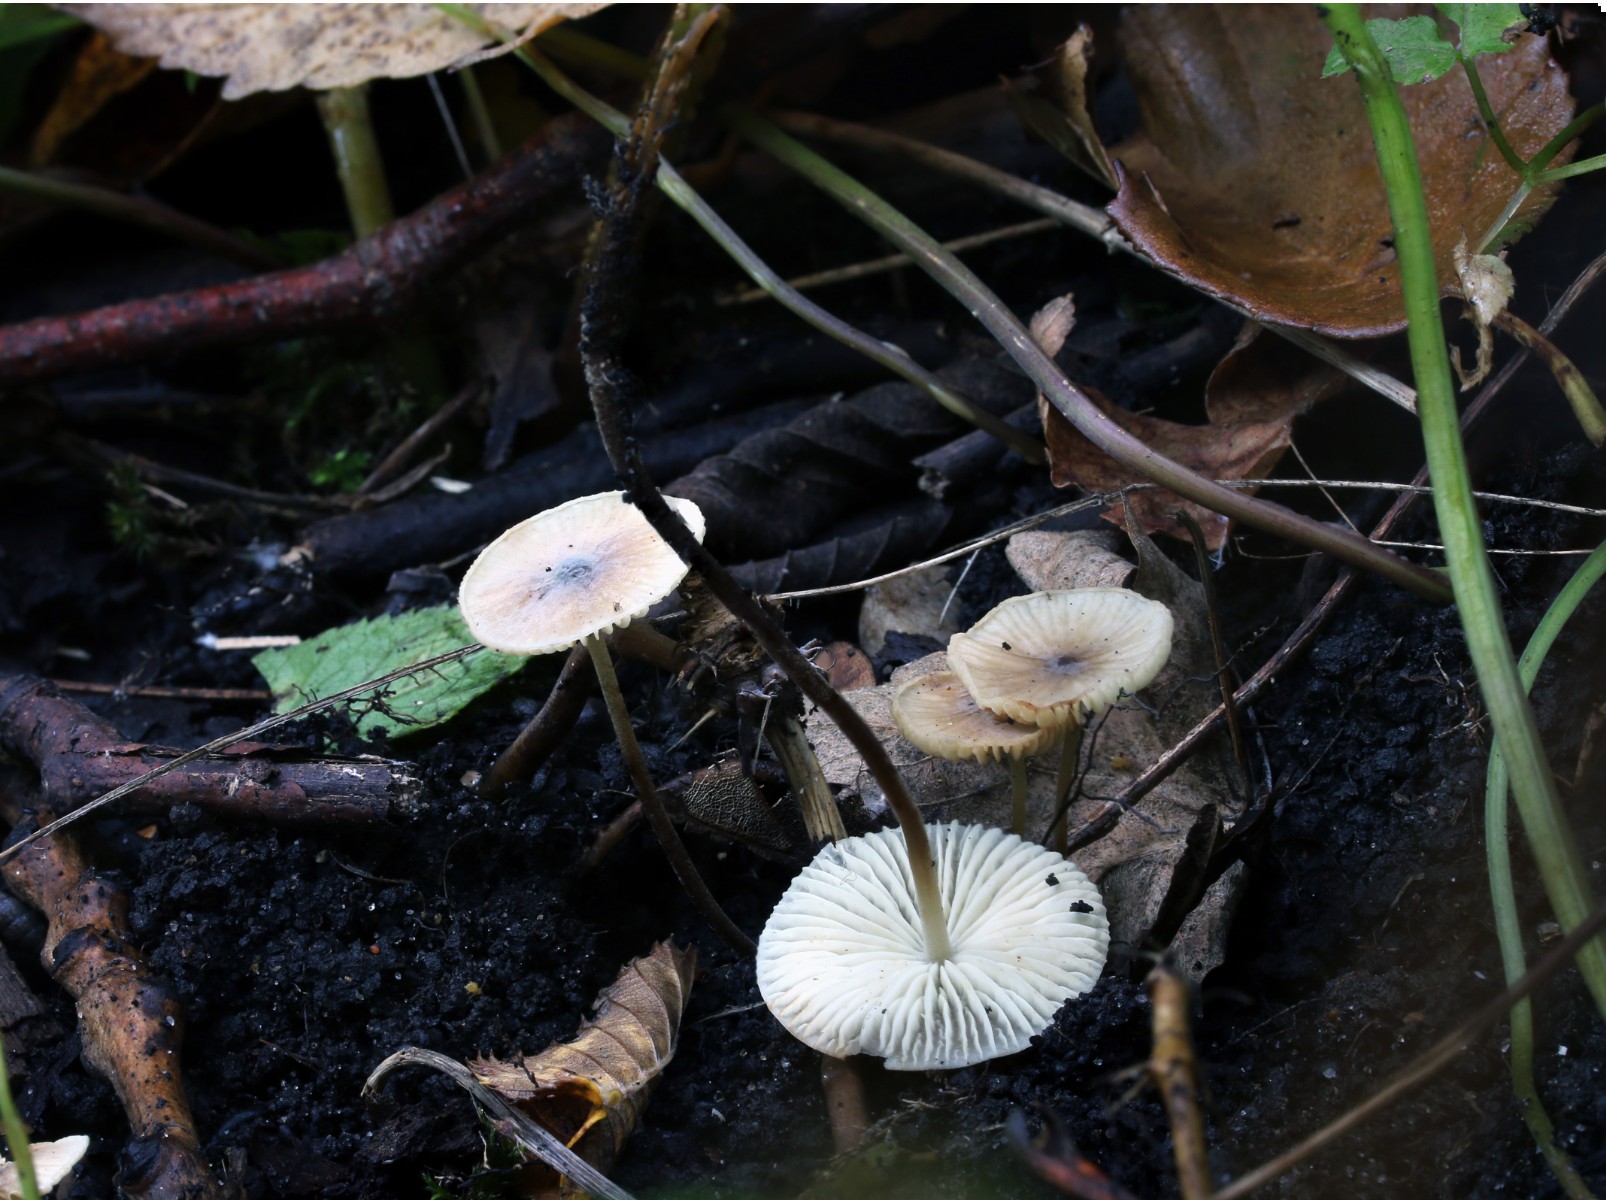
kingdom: Fungi
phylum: Basidiomycota
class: Agaricomycetes
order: Agaricales
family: Tricholomataceae
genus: Mycenella
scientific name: Mycenella trachyspora
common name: rødprikket dughat
